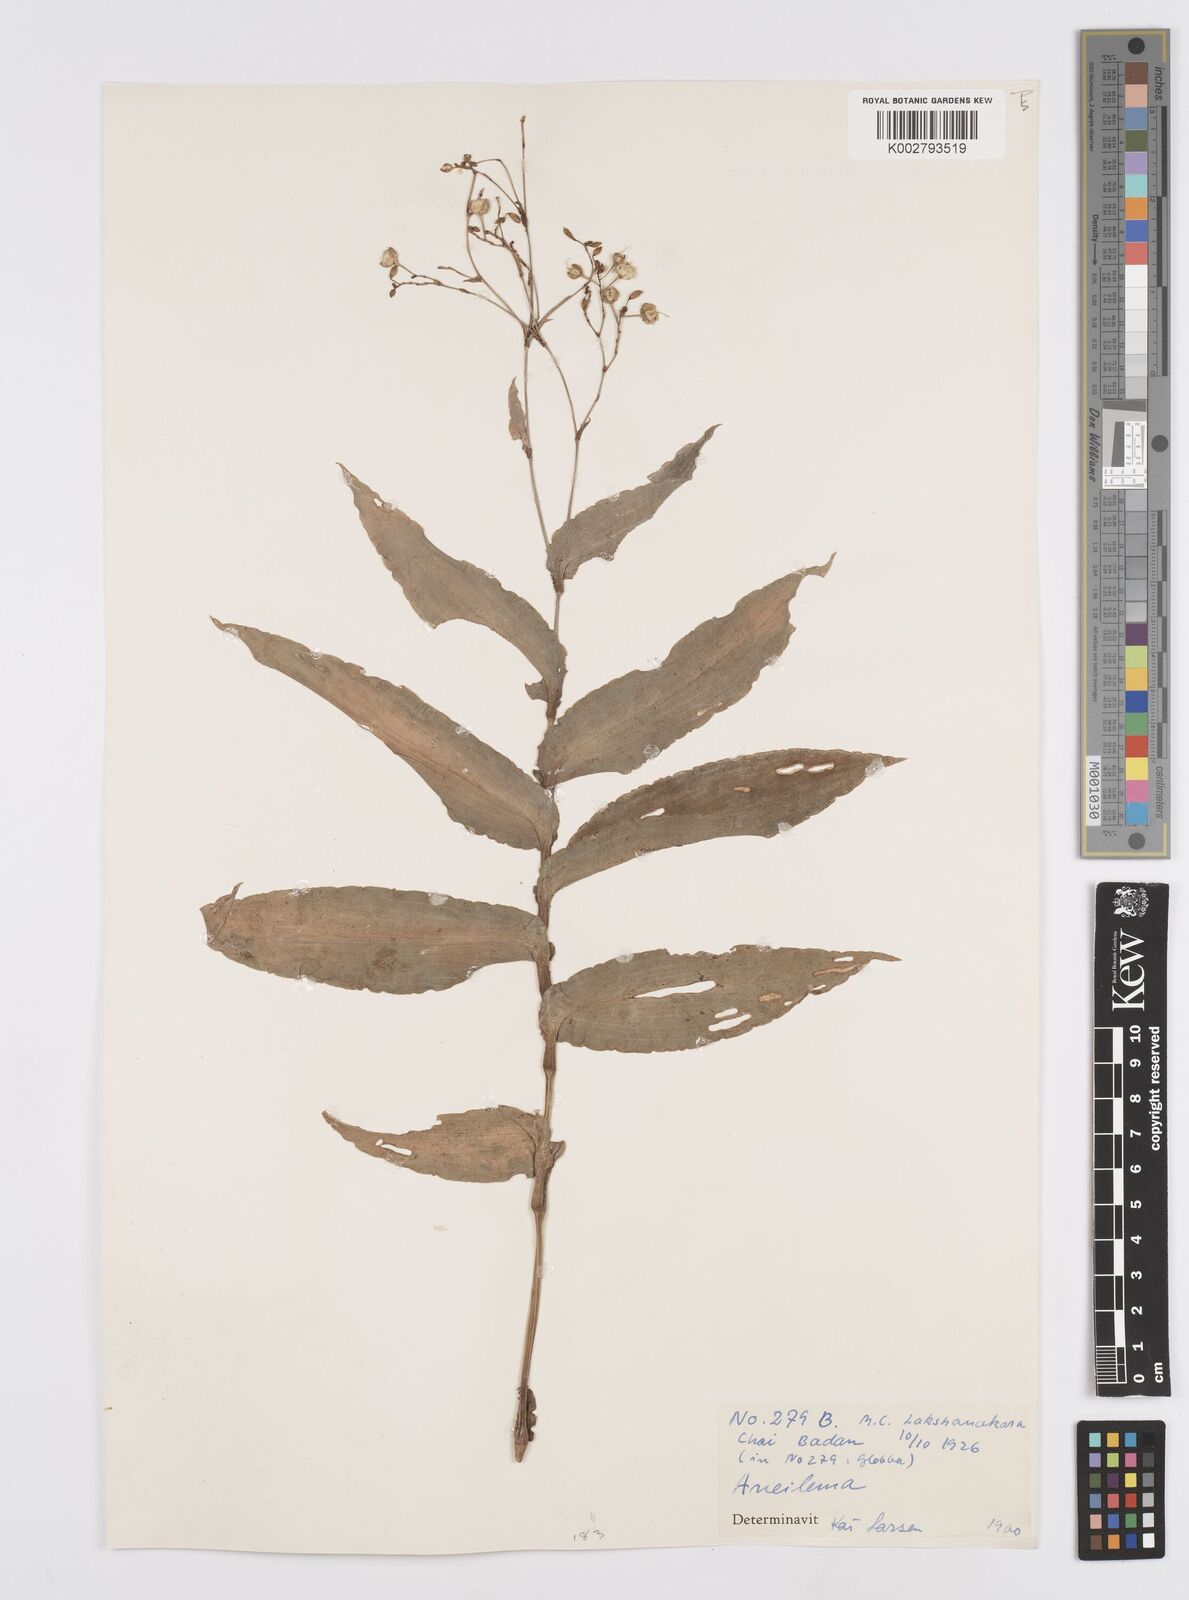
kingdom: Plantae
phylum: Tracheophyta
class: Liliopsida
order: Commelinales
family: Commelinaceae
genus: Murdannia
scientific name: Murdannia
